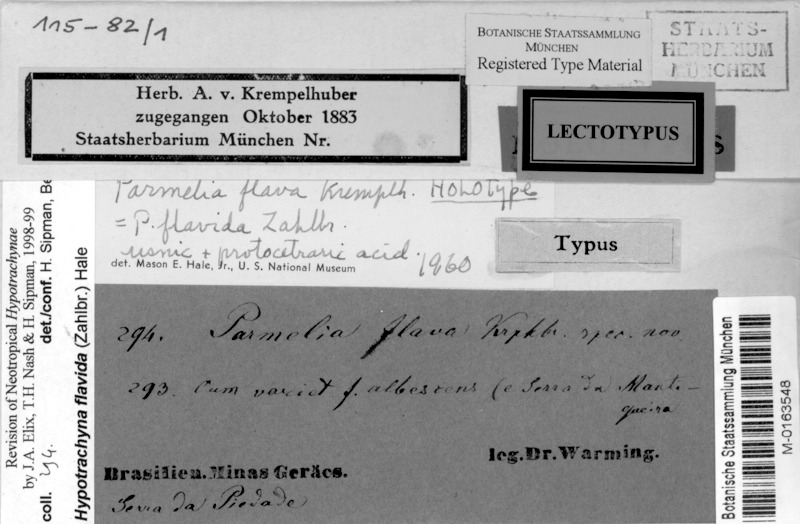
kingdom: Fungi
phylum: Ascomycota
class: Lecanoromycetes
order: Lecanorales
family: Parmeliaceae
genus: Hypotrachyna
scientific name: Hypotrachyna flavida
